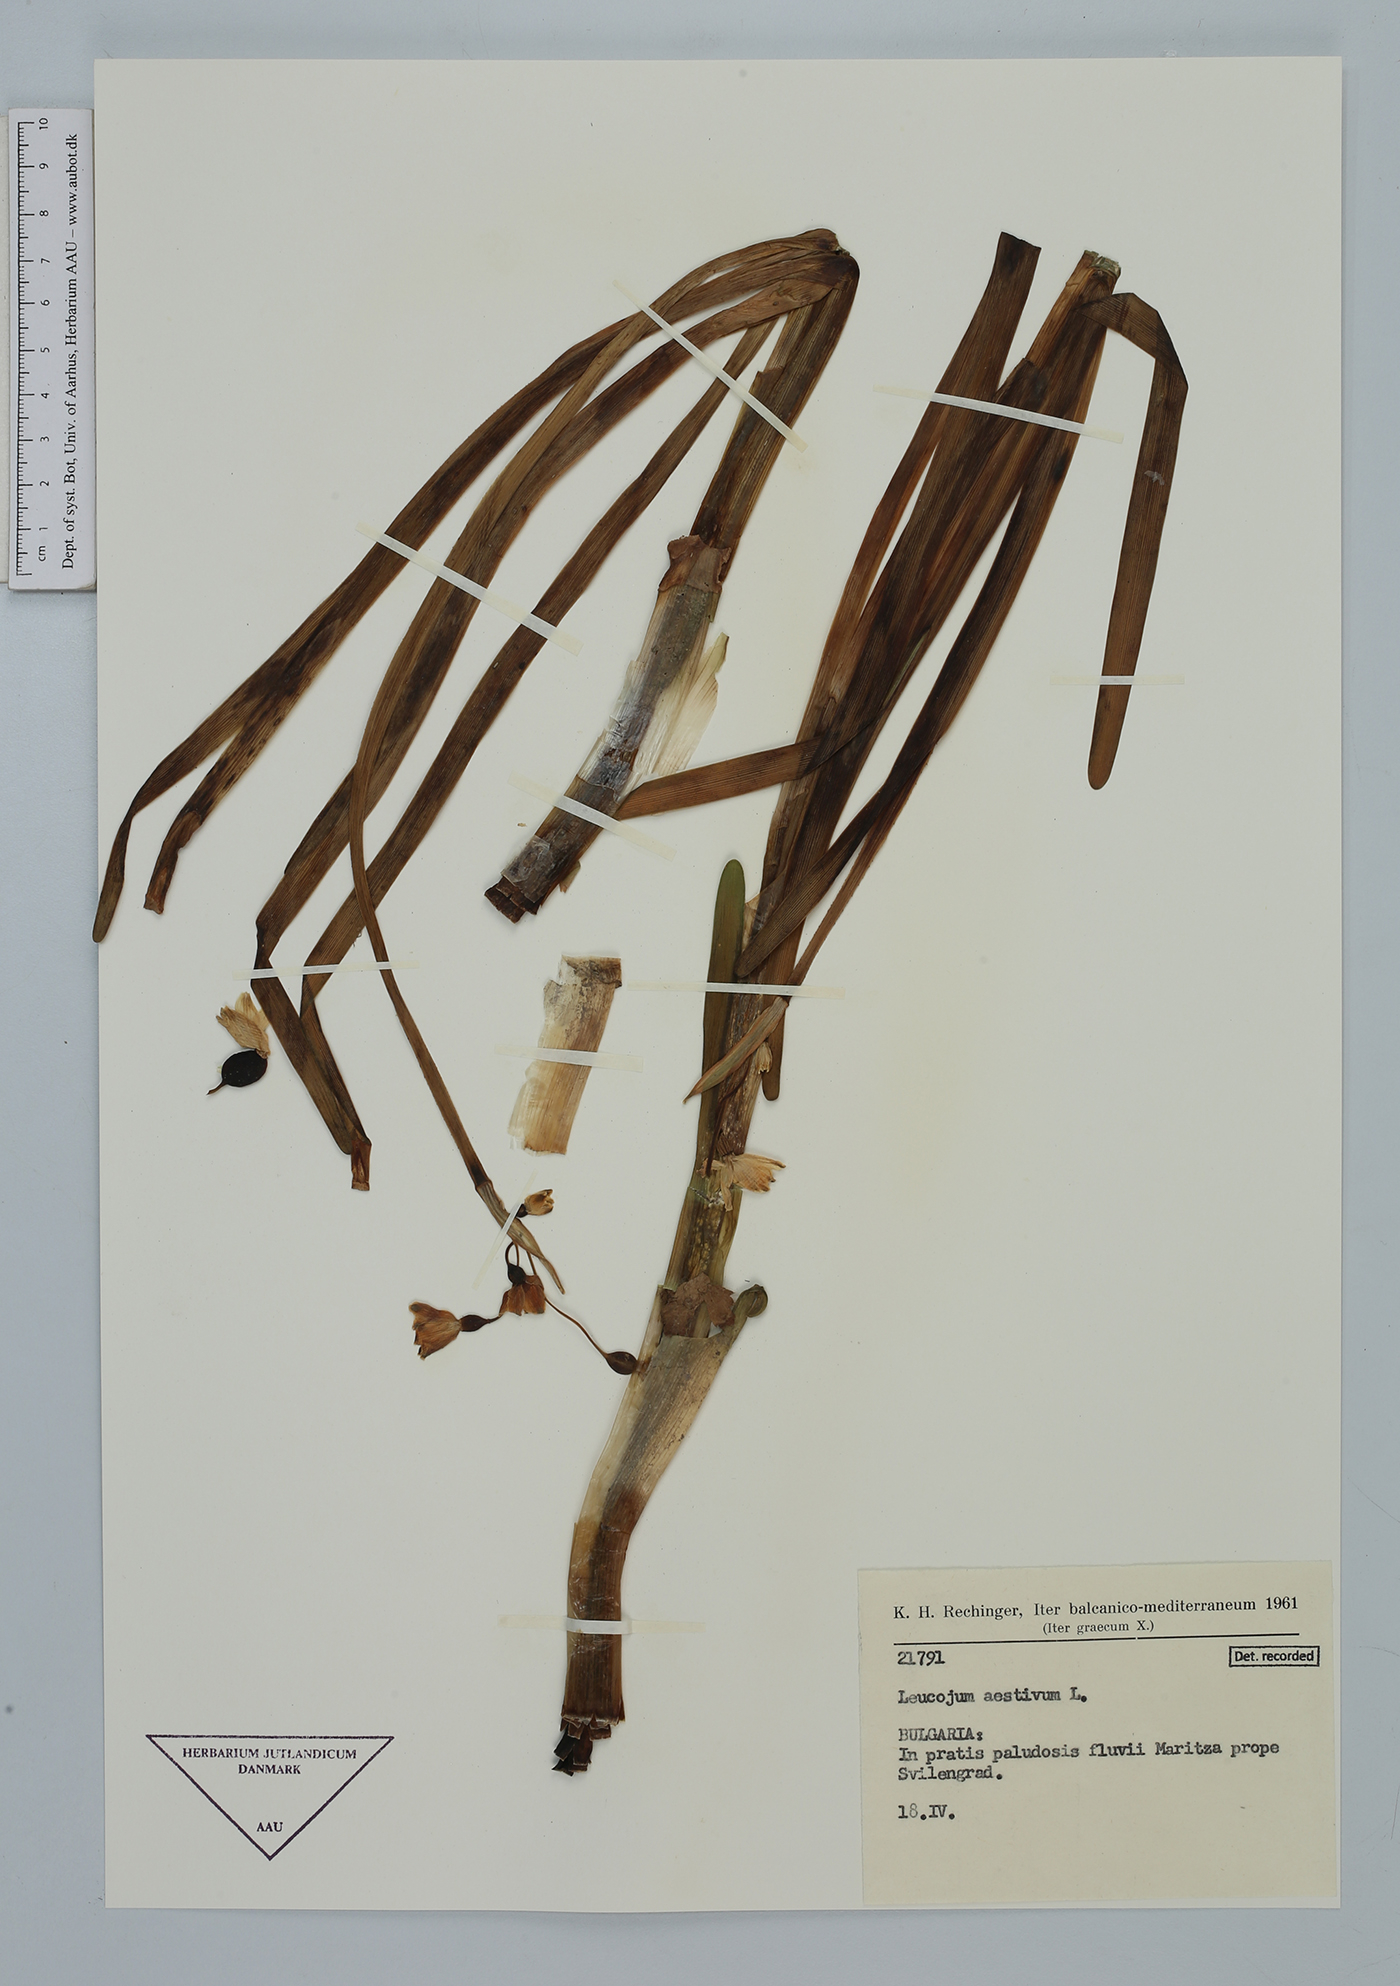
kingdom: Plantae
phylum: Tracheophyta
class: Liliopsida
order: Asparagales
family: Amaryllidaceae
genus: Leucojum
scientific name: Leucojum aestivum
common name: Summer snowflake
